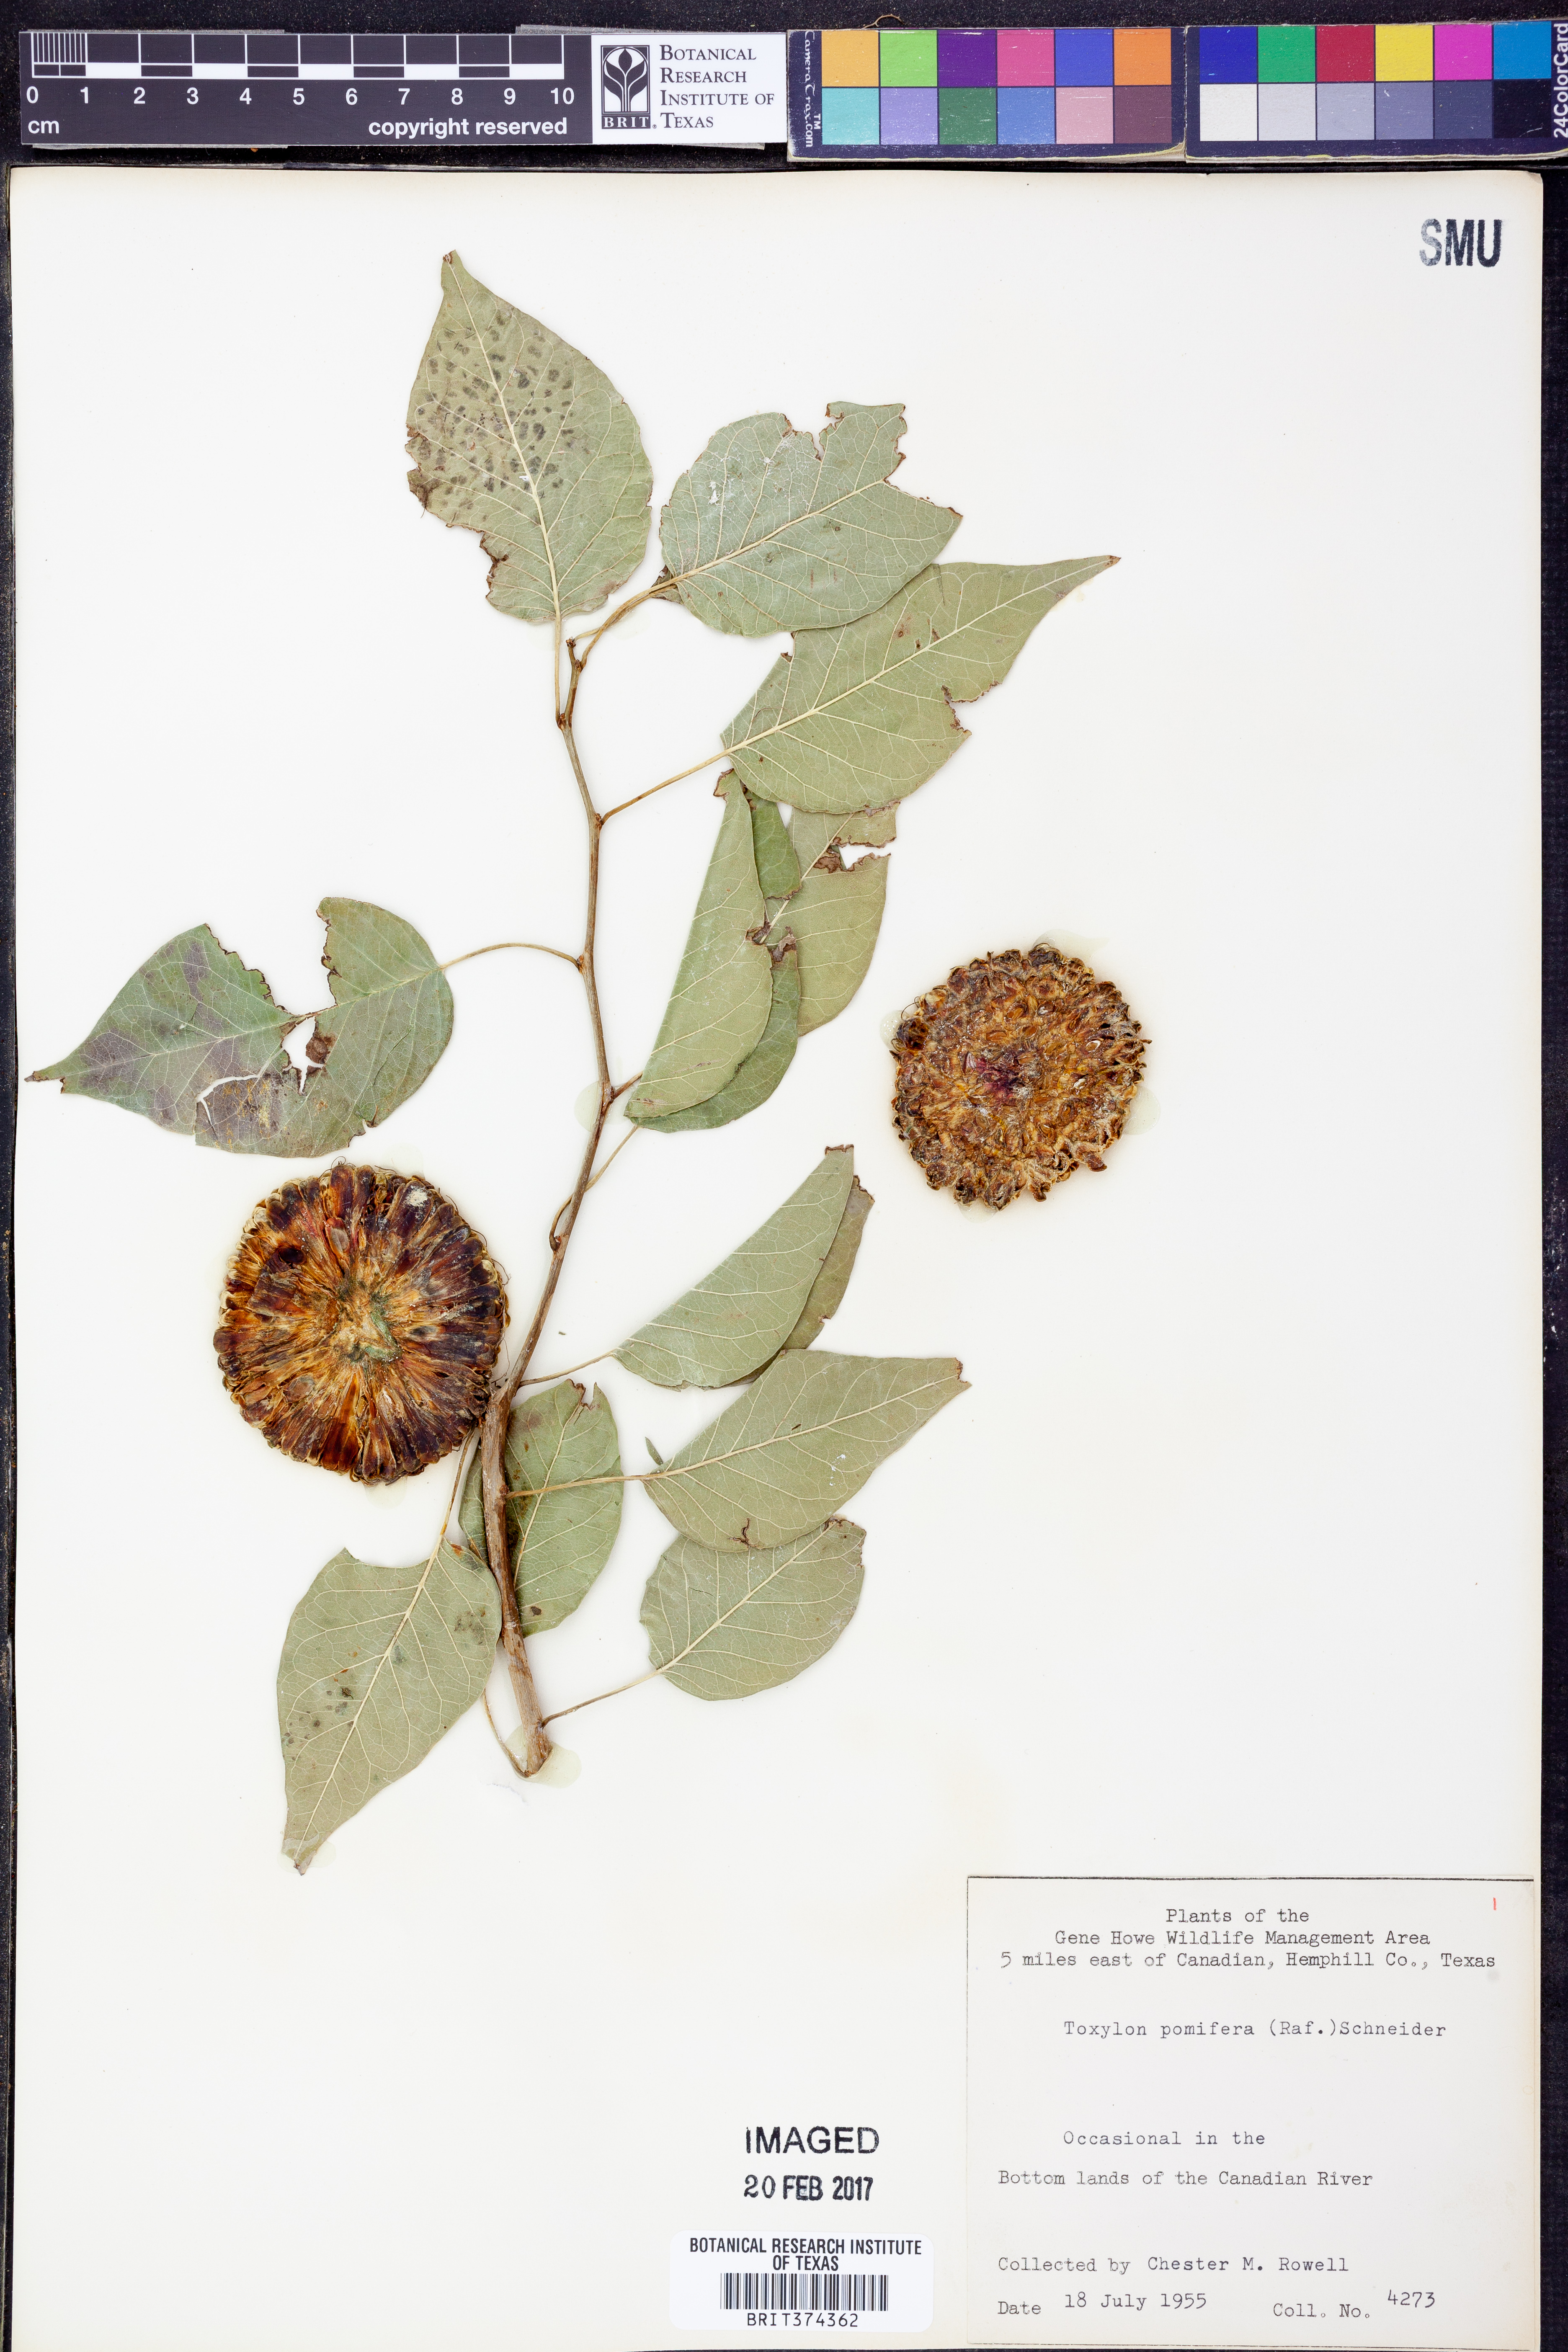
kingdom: Plantae
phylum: Tracheophyta
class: Magnoliopsida
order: Rosales
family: Moraceae
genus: Maclura
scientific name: Maclura pomifera
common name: Osage-orange
